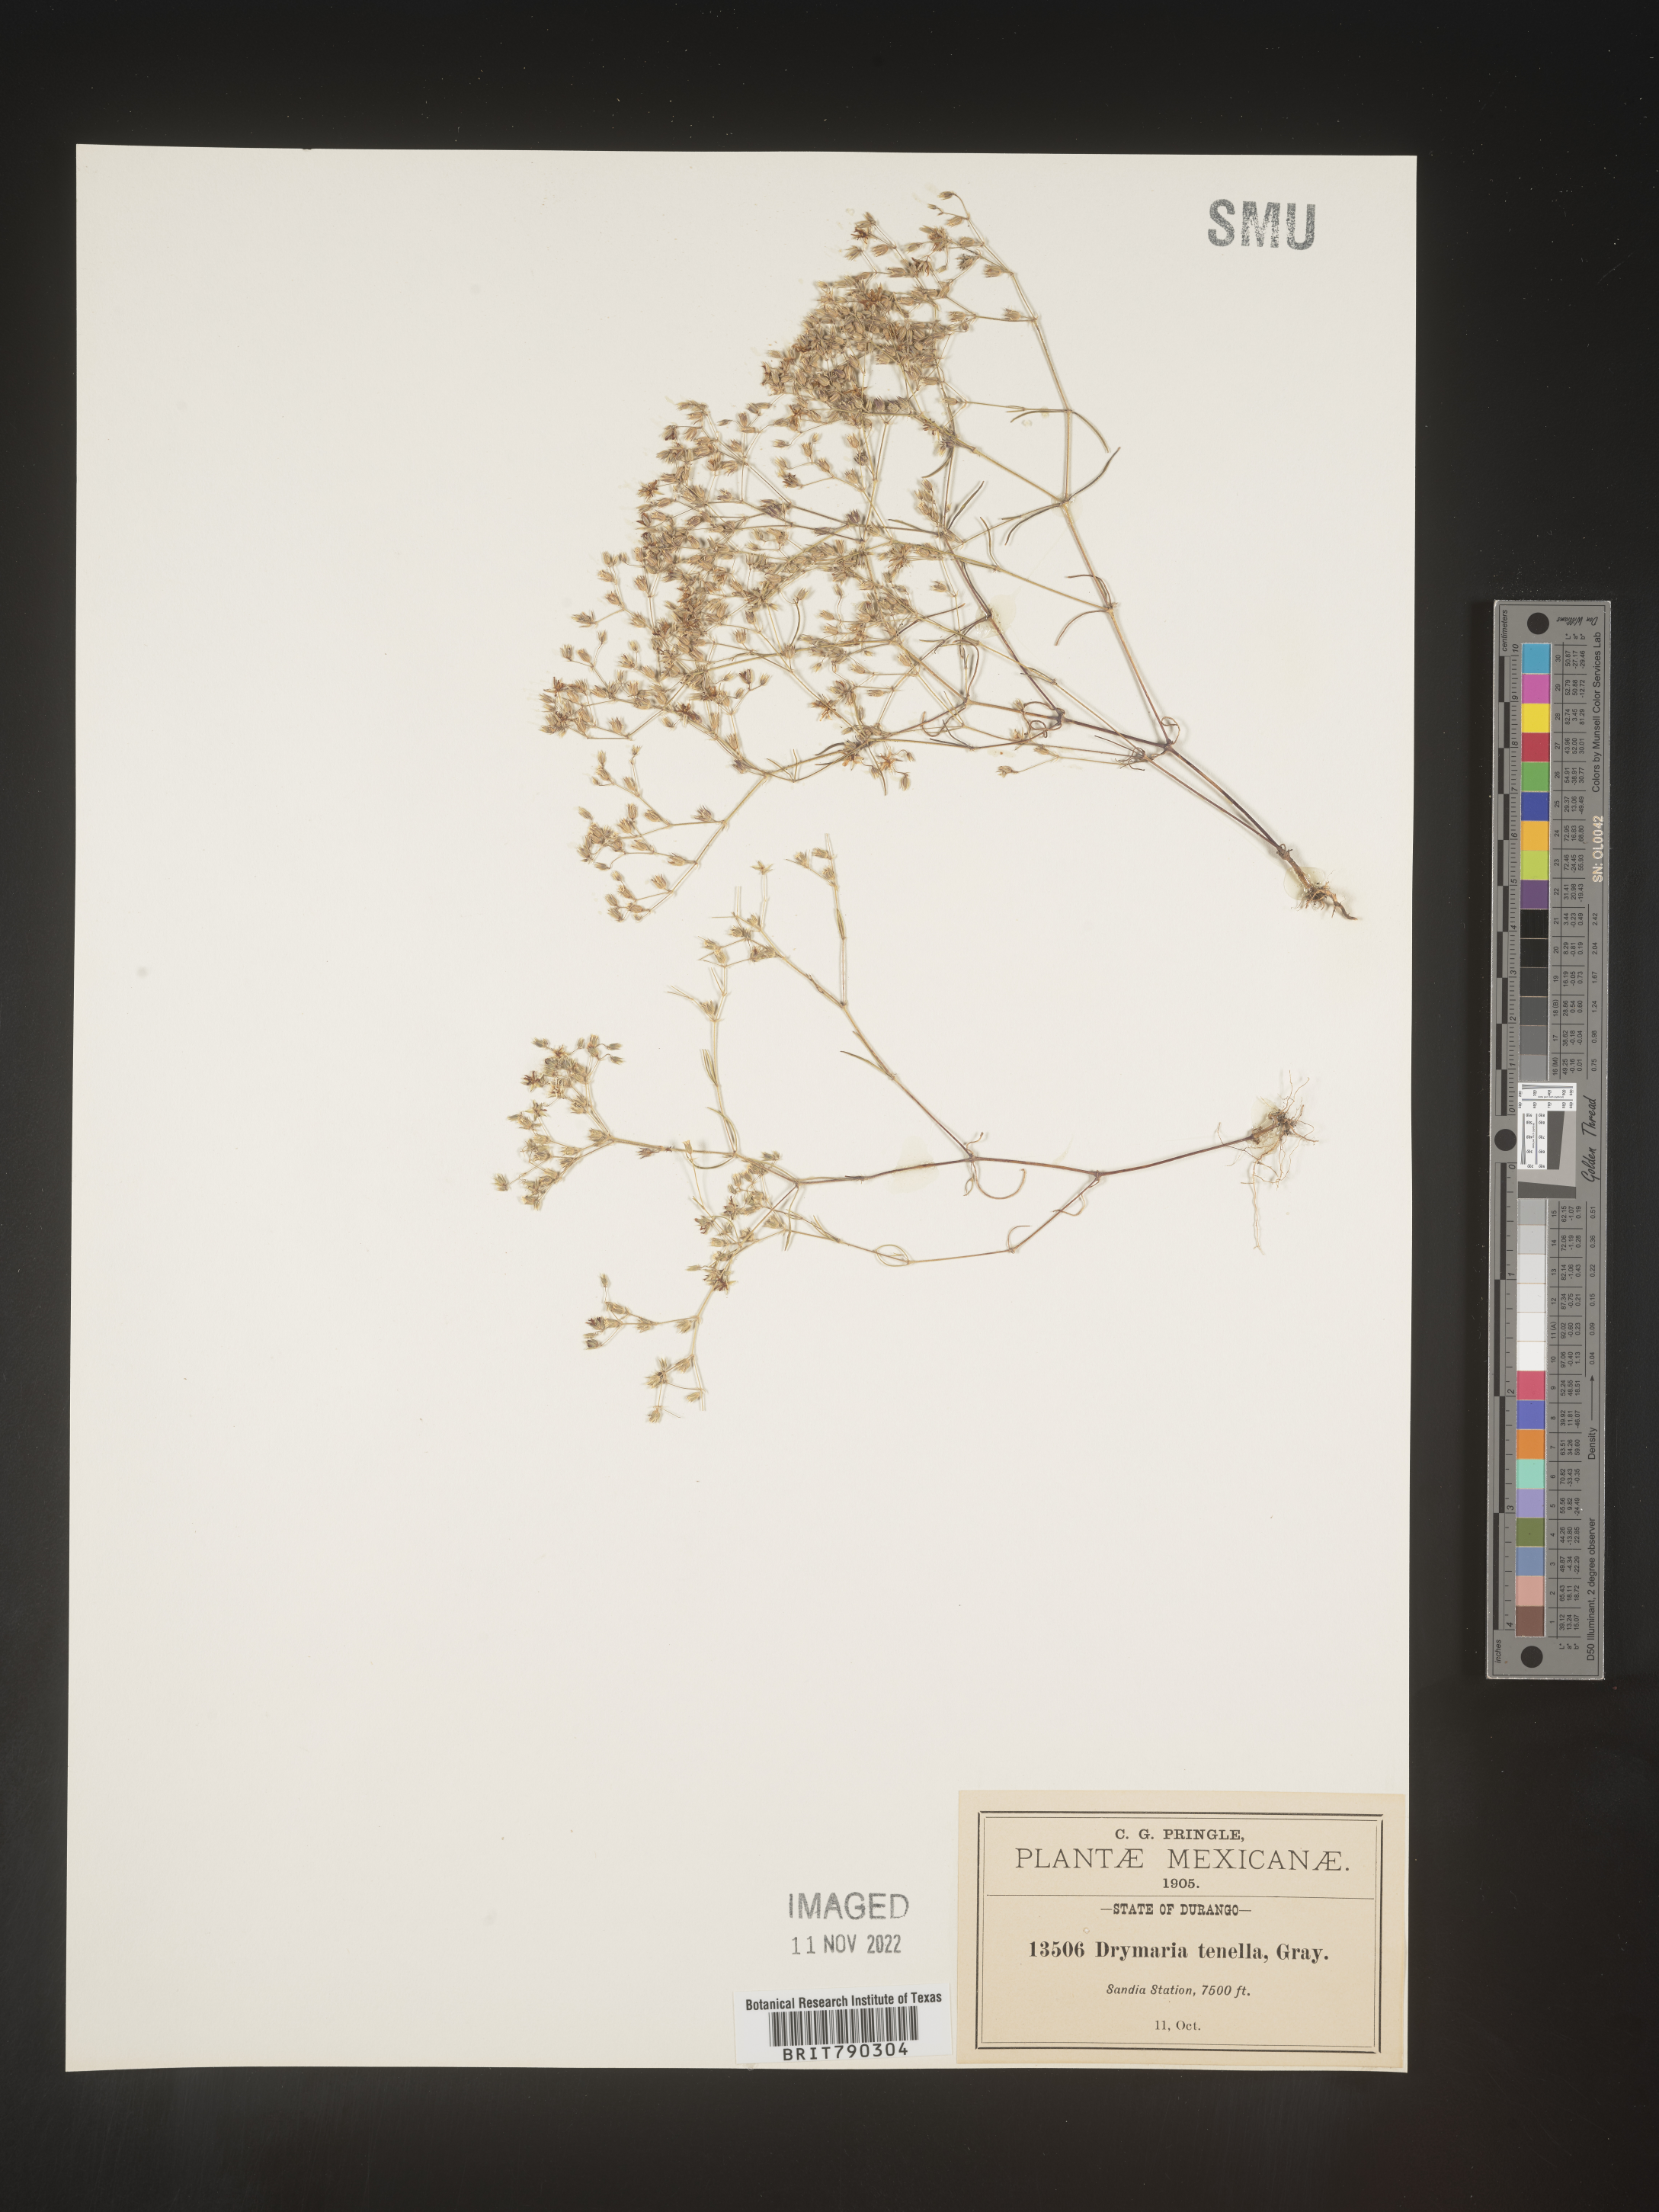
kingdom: Plantae
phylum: Tracheophyta
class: Magnoliopsida
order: Caryophyllales
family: Caryophyllaceae
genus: Drymaria
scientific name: Drymaria
